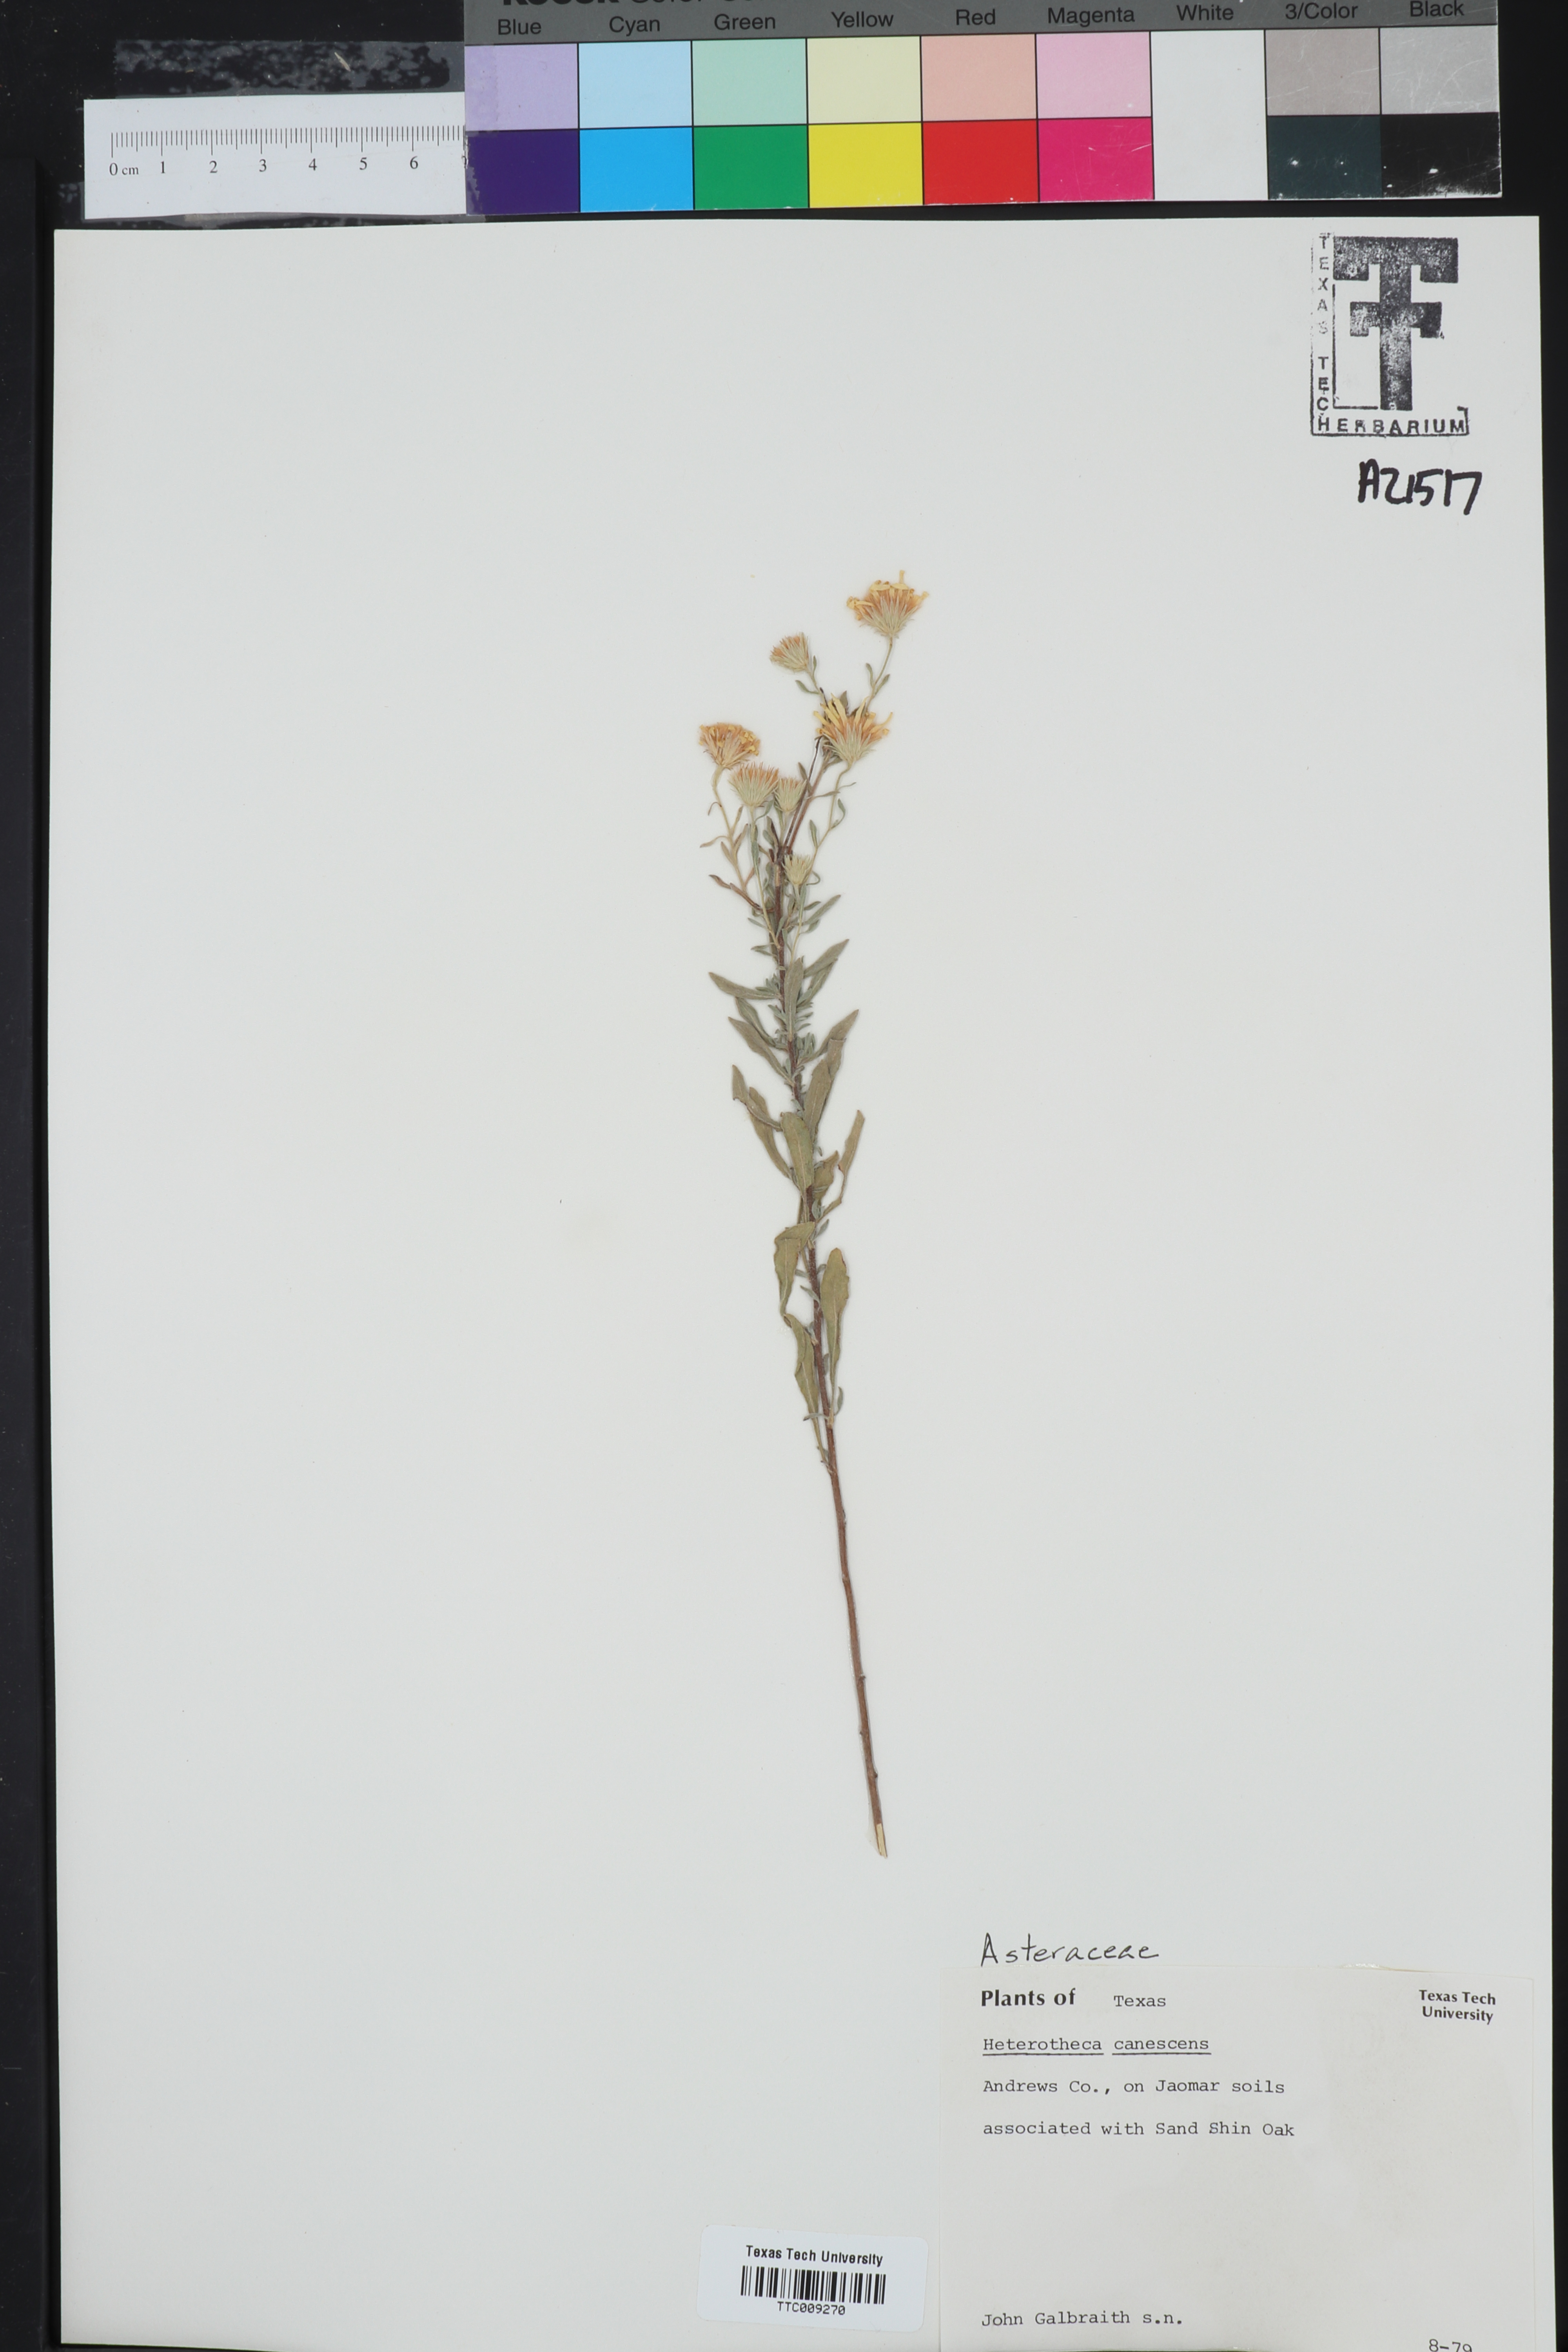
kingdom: Plantae
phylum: Tracheophyta
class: Magnoliopsida
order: Asterales
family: Asteraceae
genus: Heterotheca
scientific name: Heterotheca canescens
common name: Hoary golden-aster
